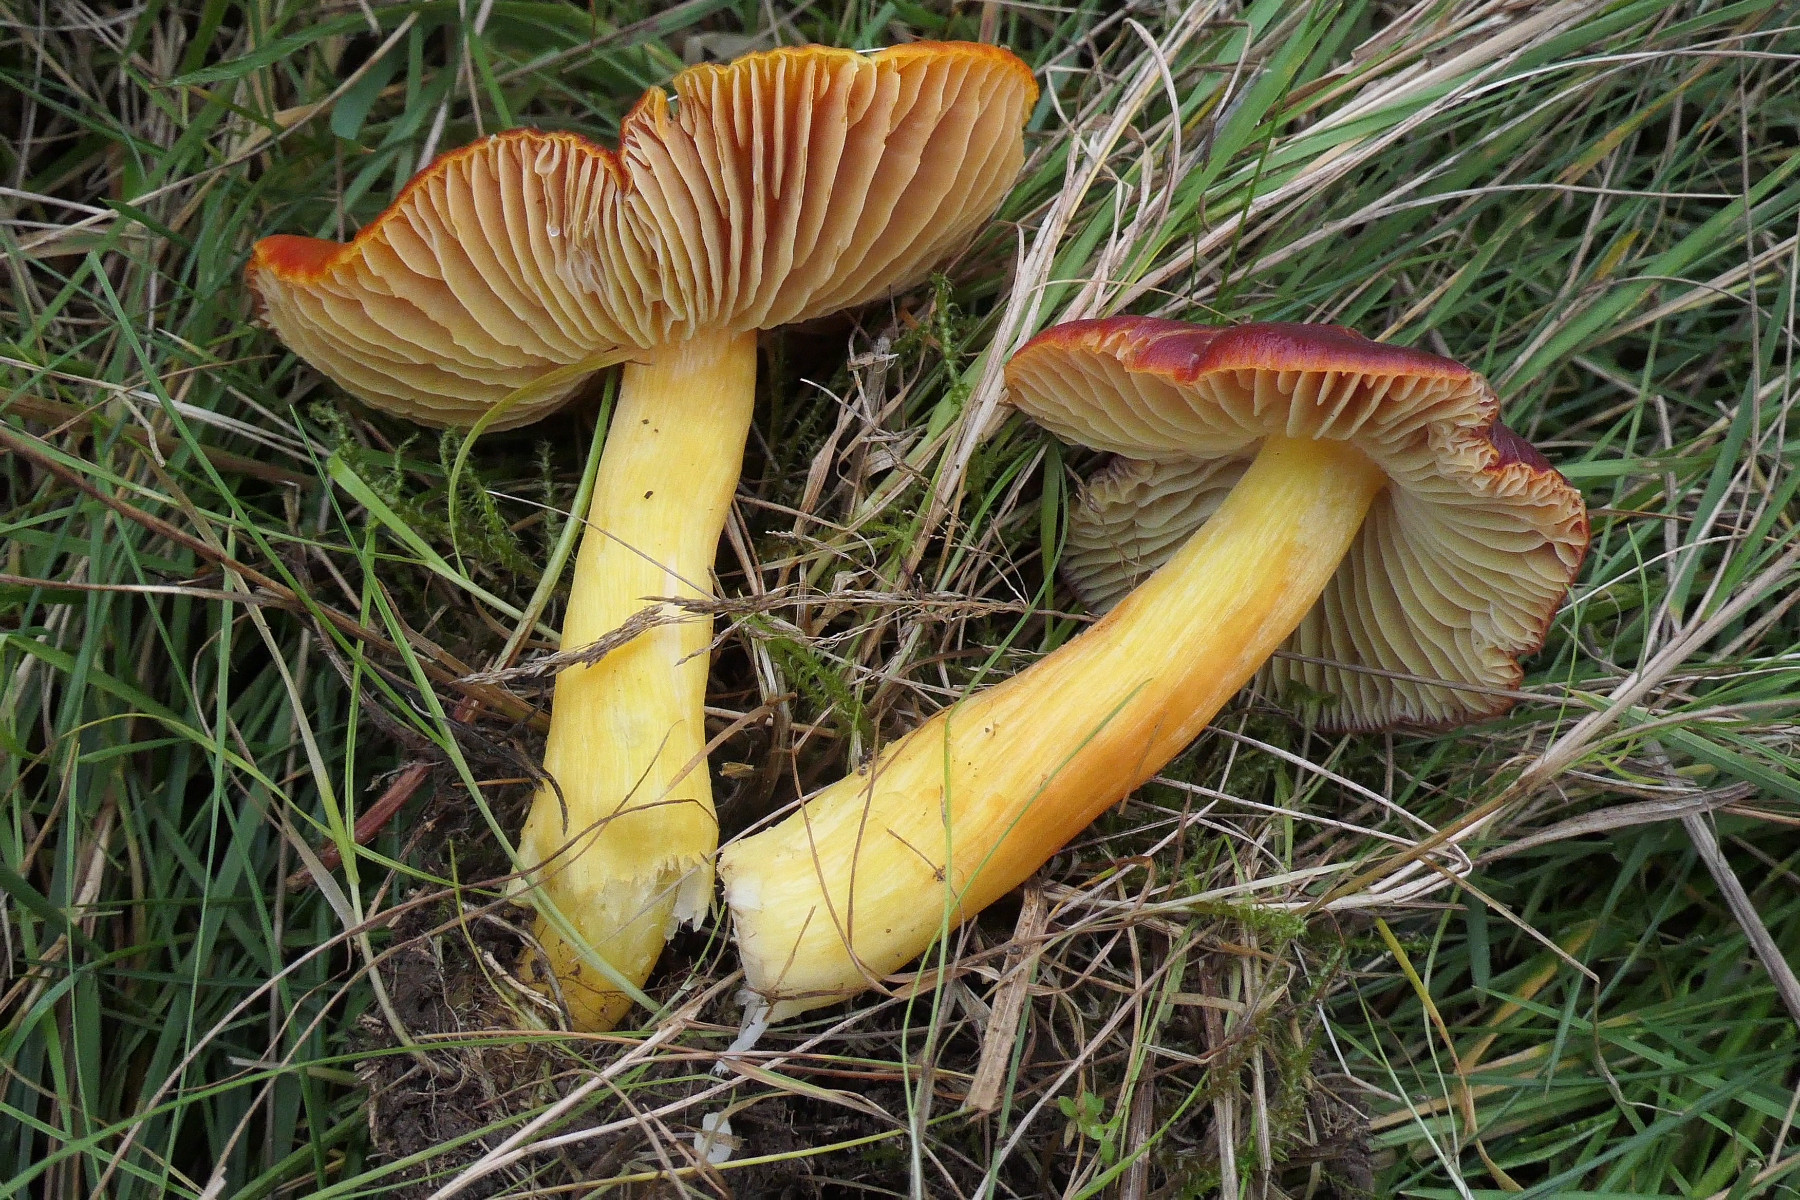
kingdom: Fungi
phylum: Basidiomycota
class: Agaricomycetes
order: Agaricales
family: Hygrophoraceae
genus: Hygrocybe
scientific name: Hygrocybe punicea
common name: skarlagen-vokshat
